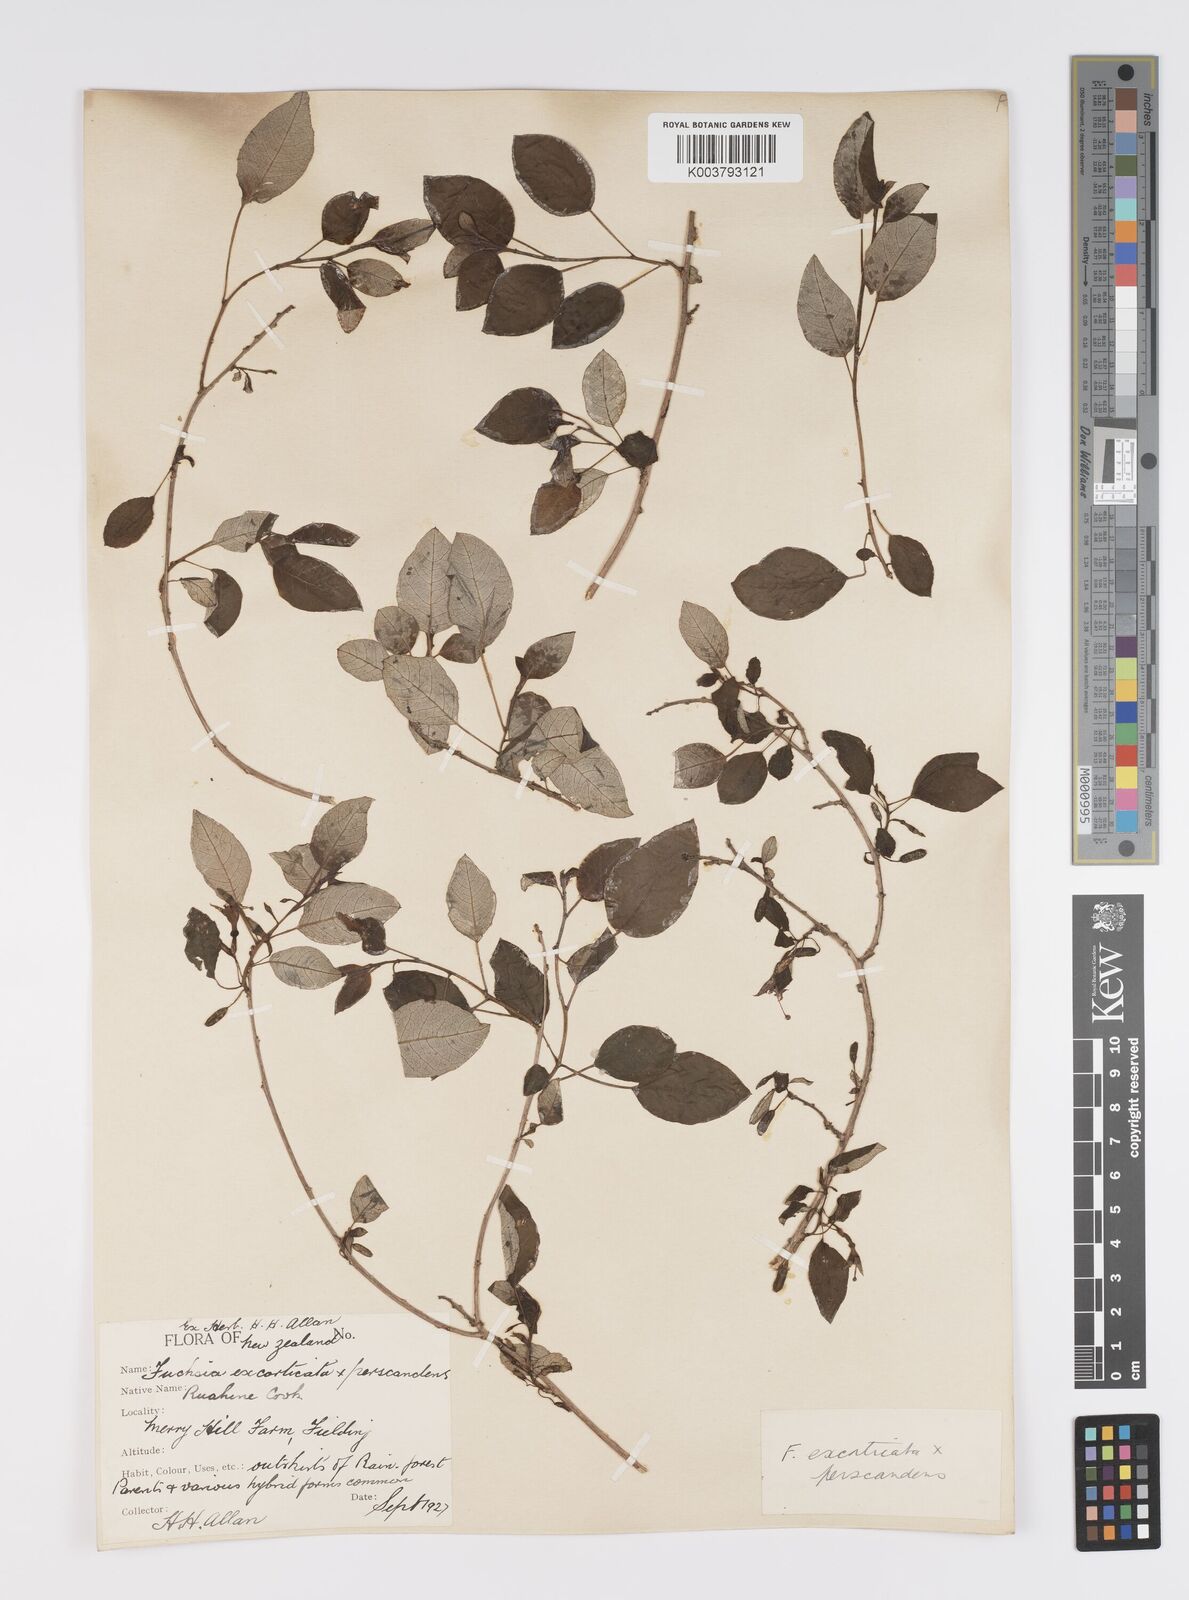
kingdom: Plantae
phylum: Tracheophyta
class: Magnoliopsida
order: Myrtales
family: Onagraceae
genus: Fuchsia
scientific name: Fuchsia excorticata
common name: Tree fuchsia
